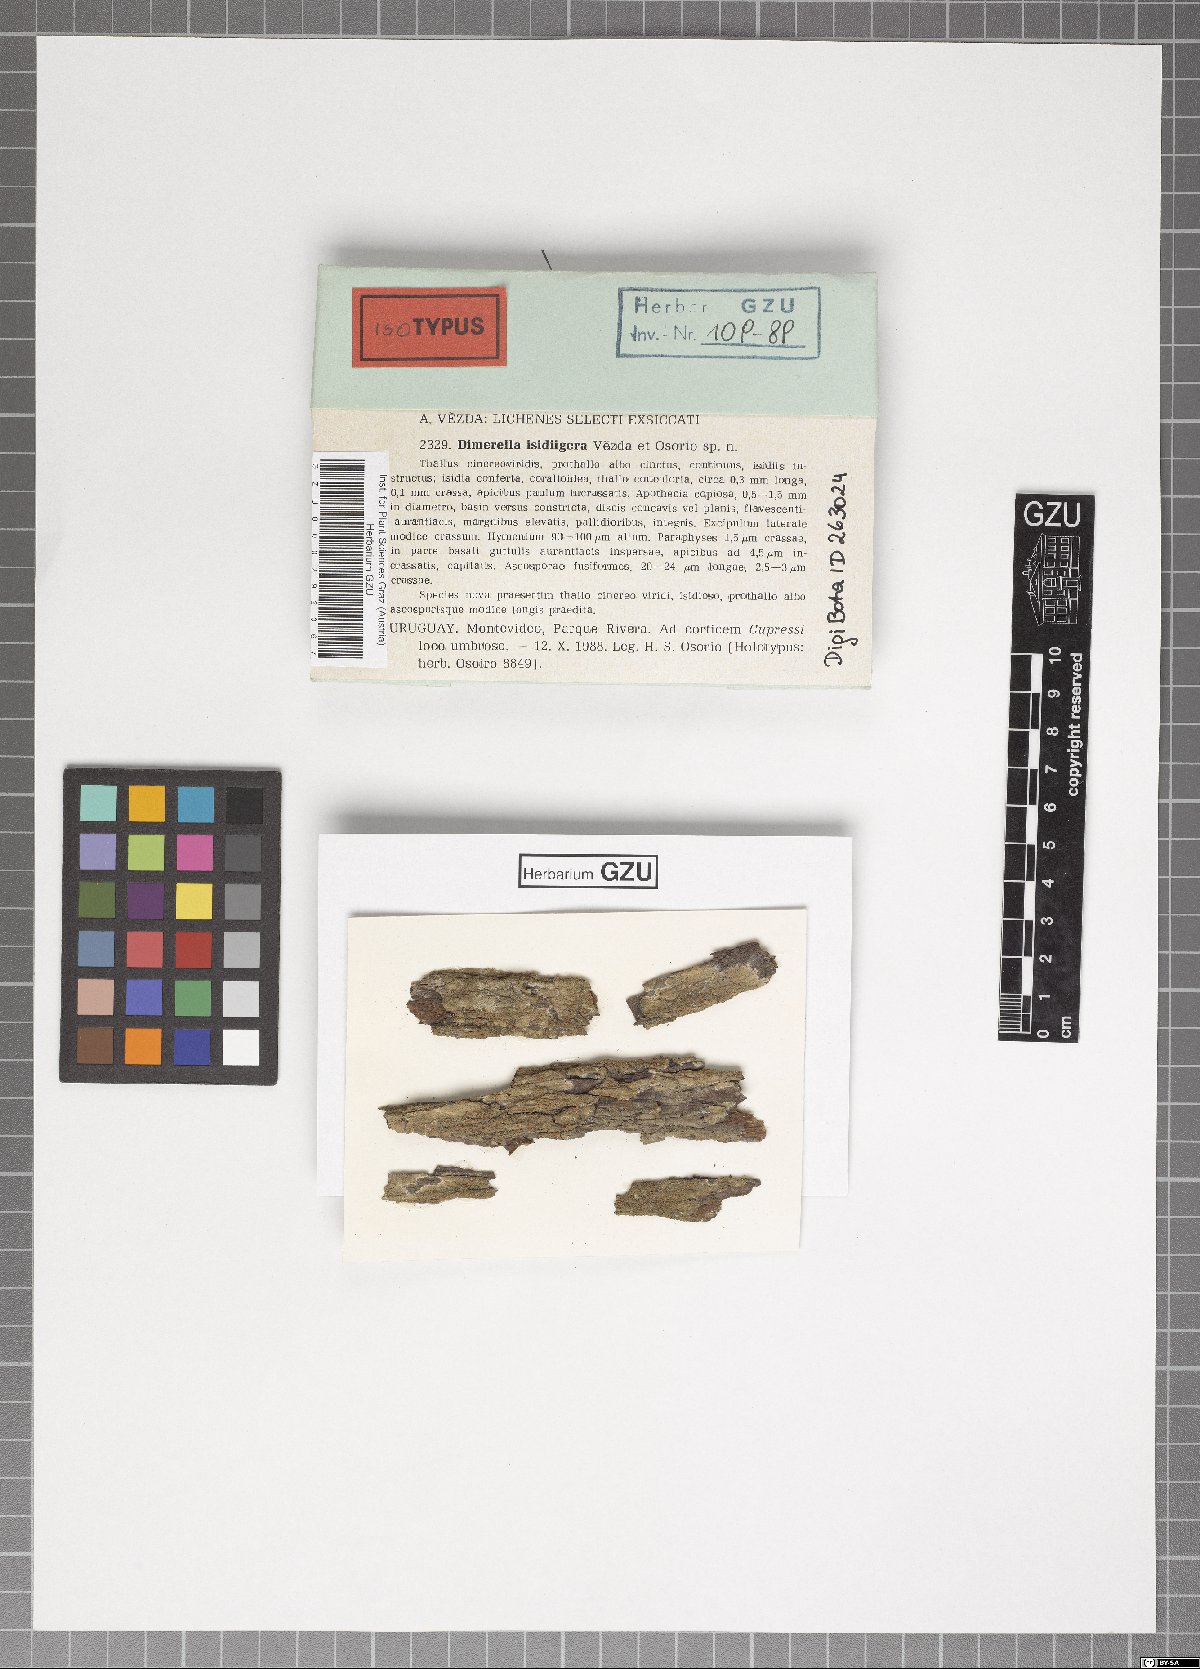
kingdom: Fungi
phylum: Ascomycota
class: Lecanoromycetes
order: Ostropales
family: Coenogoniaceae
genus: Coenogonium
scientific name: Coenogonium isidiigerum
